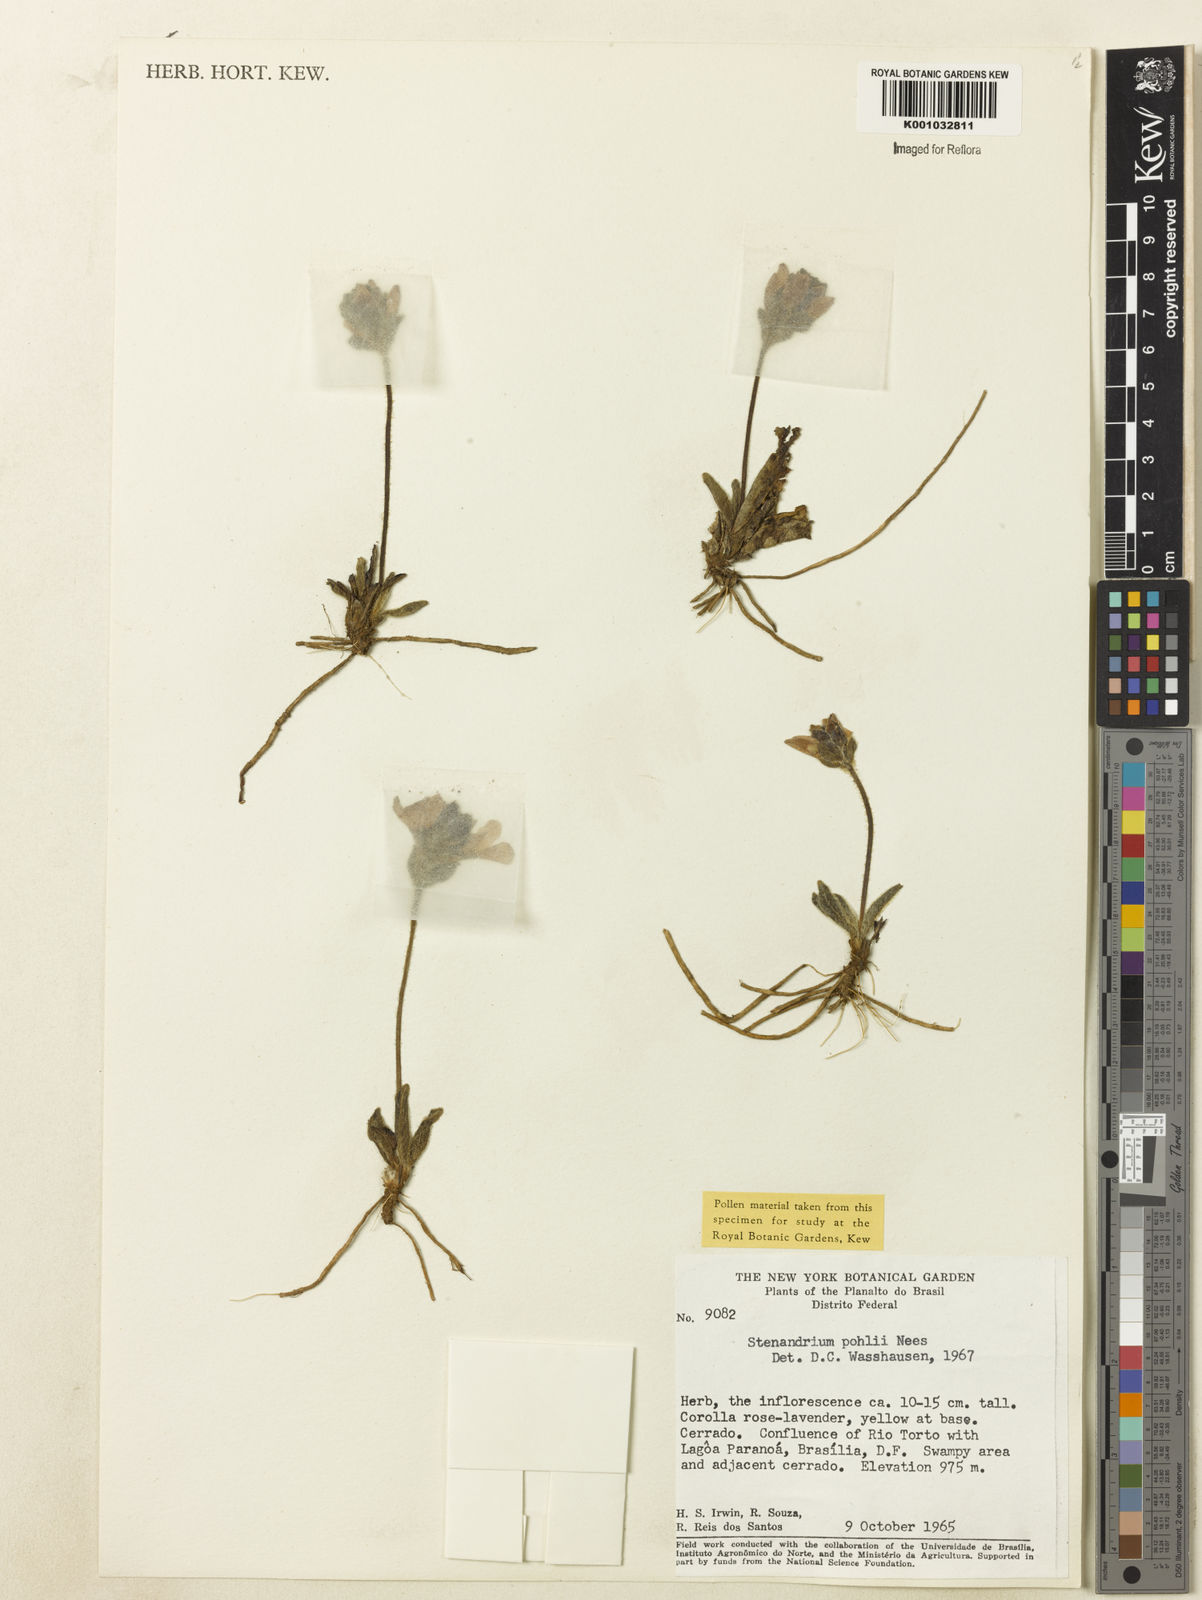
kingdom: Plantae
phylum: Tracheophyta
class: Magnoliopsida
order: Lamiales
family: Acanthaceae
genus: Stenandrium
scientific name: Stenandrium pohlii
